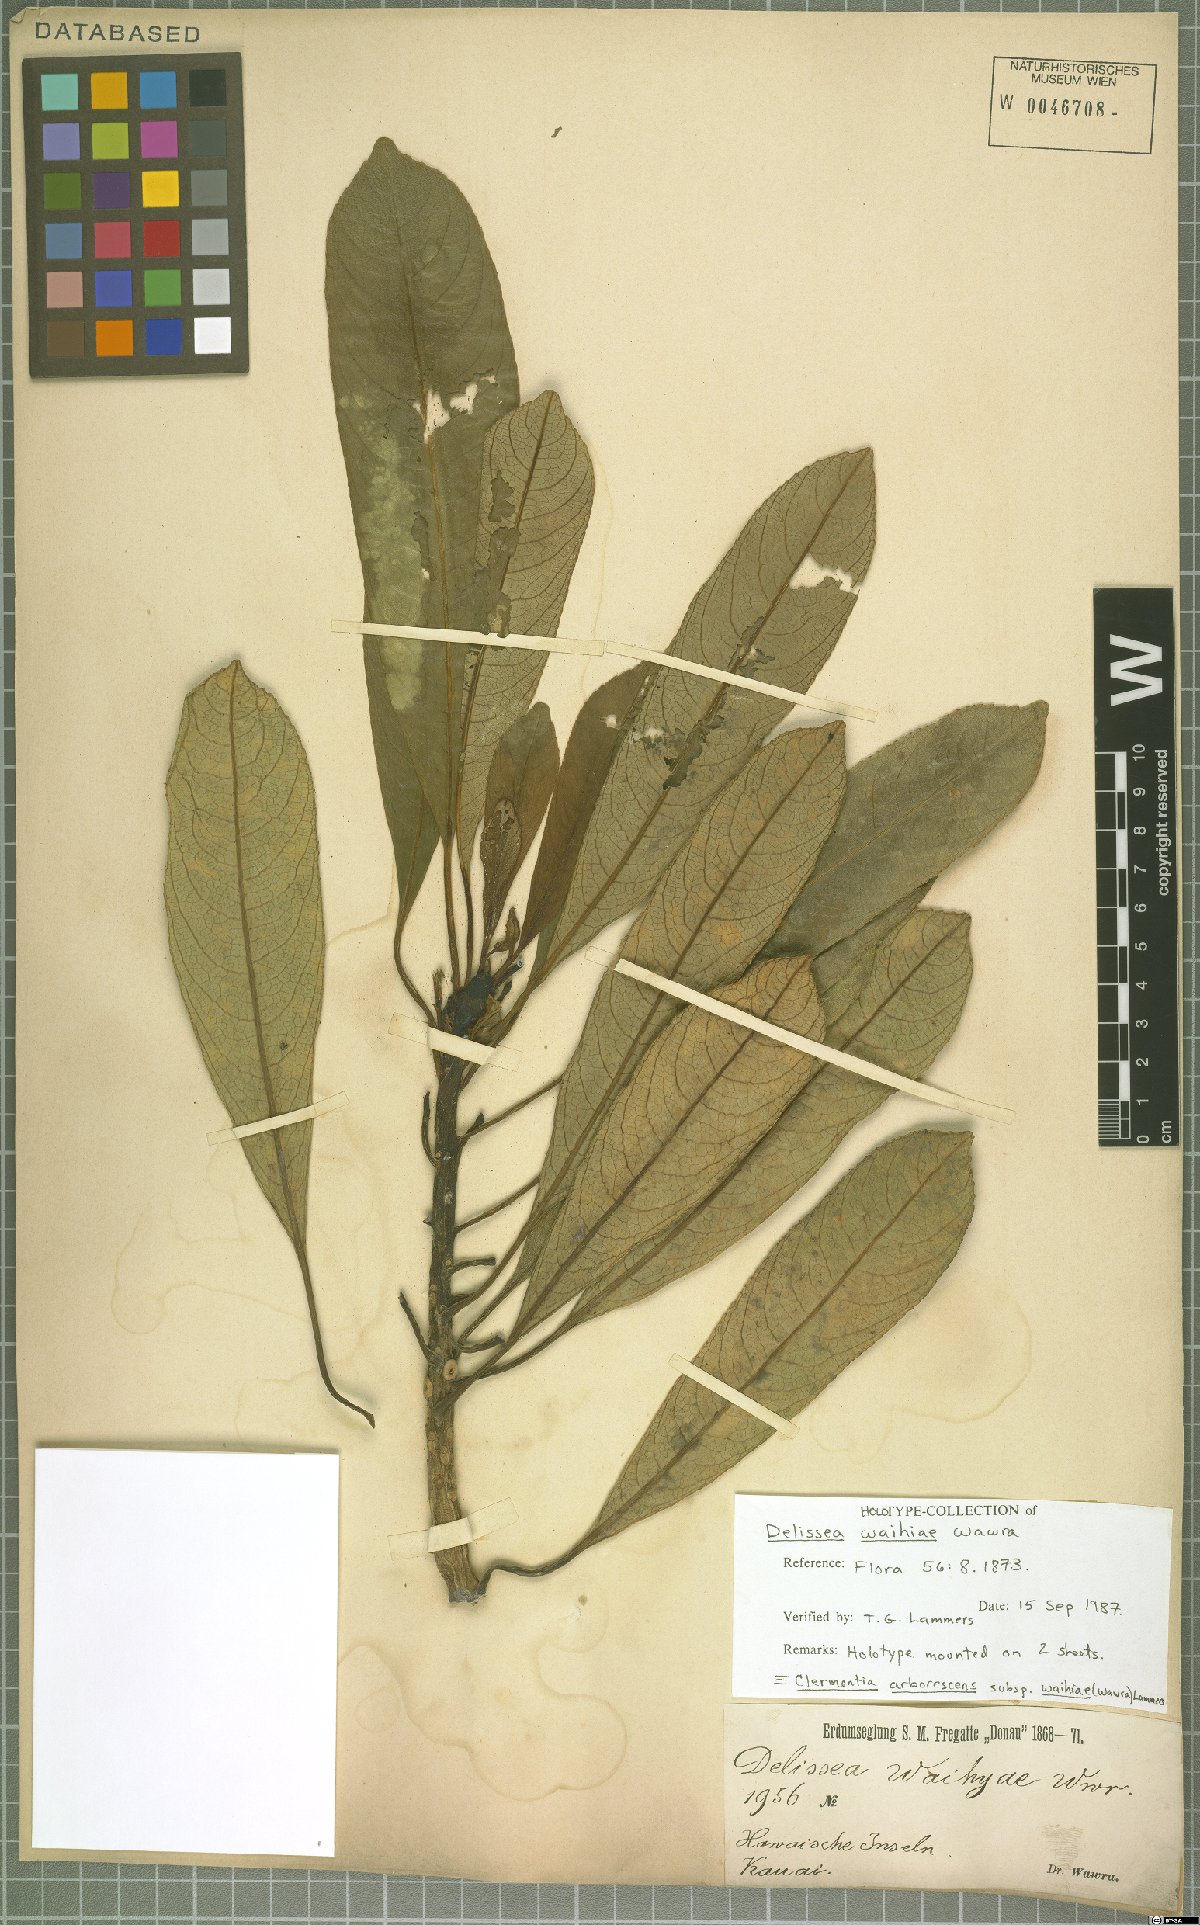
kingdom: Plantae
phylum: Tracheophyta
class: Magnoliopsida
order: Asterales
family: Campanulaceae
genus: Clermontia
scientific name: Clermontia arborescens
